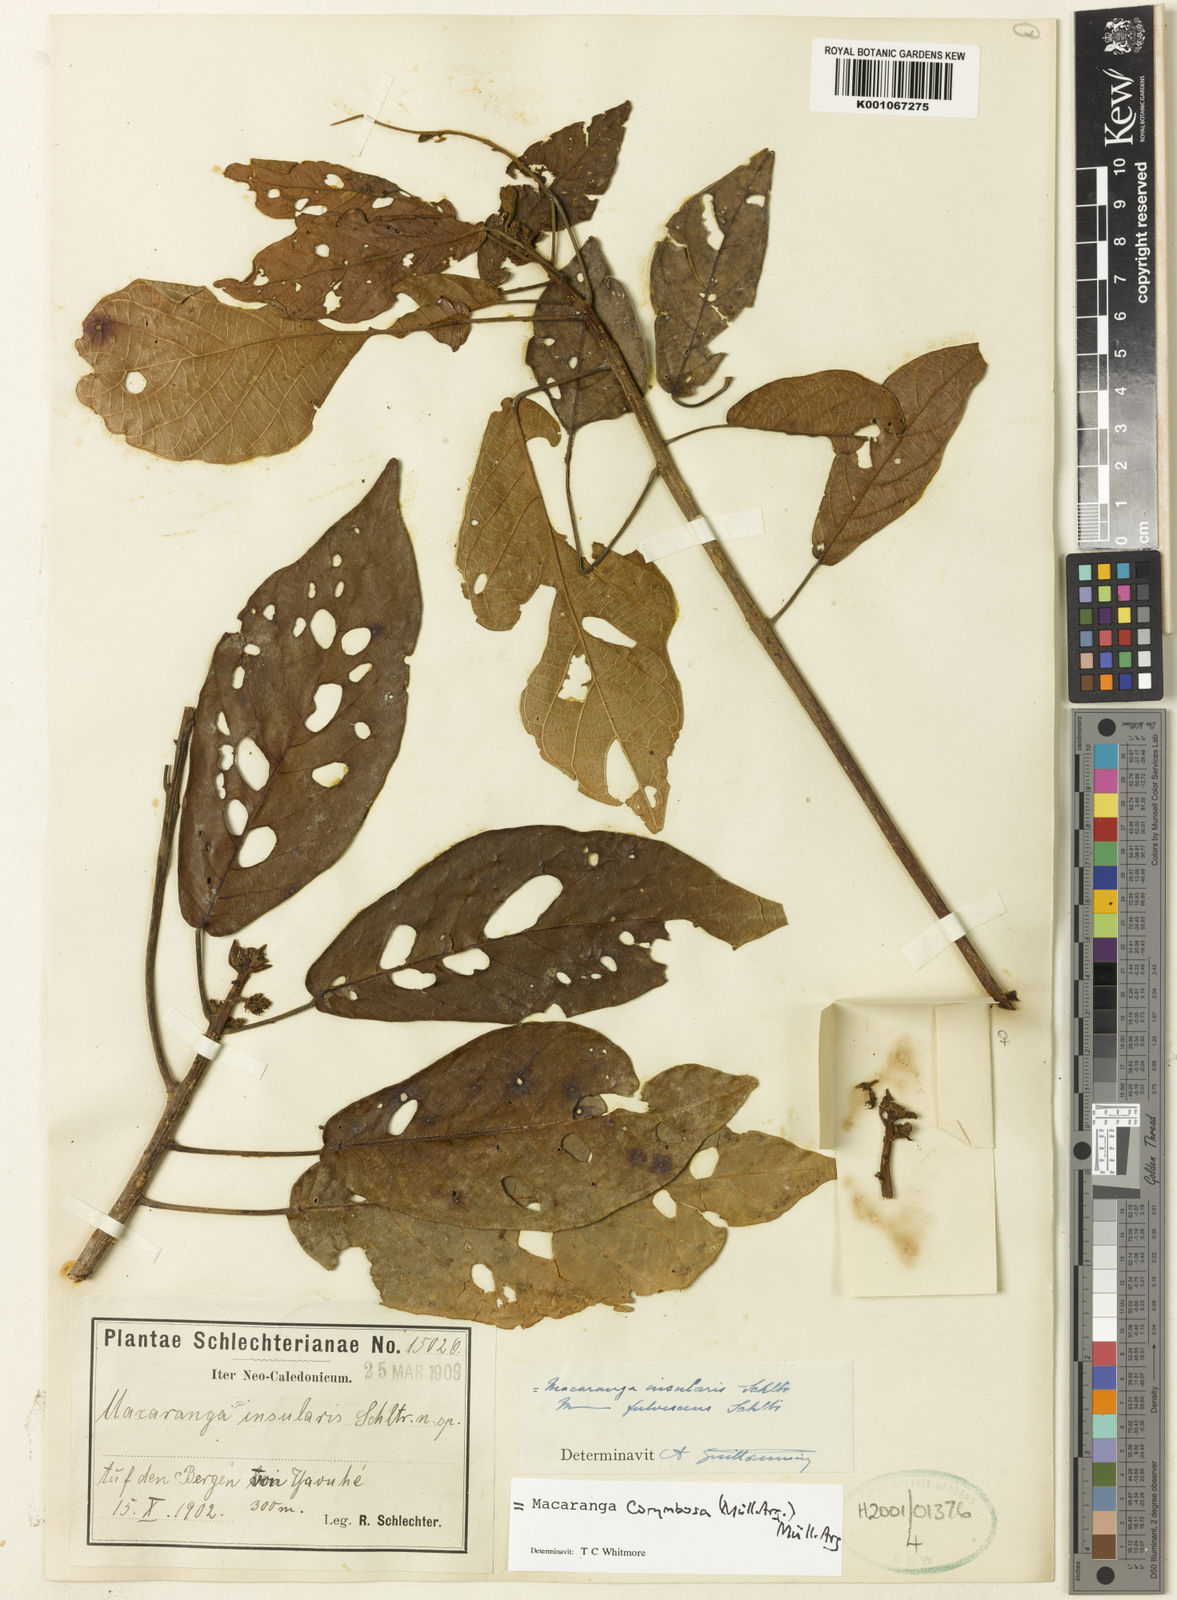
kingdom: Plantae
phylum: Tracheophyta
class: Magnoliopsida
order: Malpighiales
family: Euphorbiaceae
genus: Macaranga
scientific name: Macaranga
